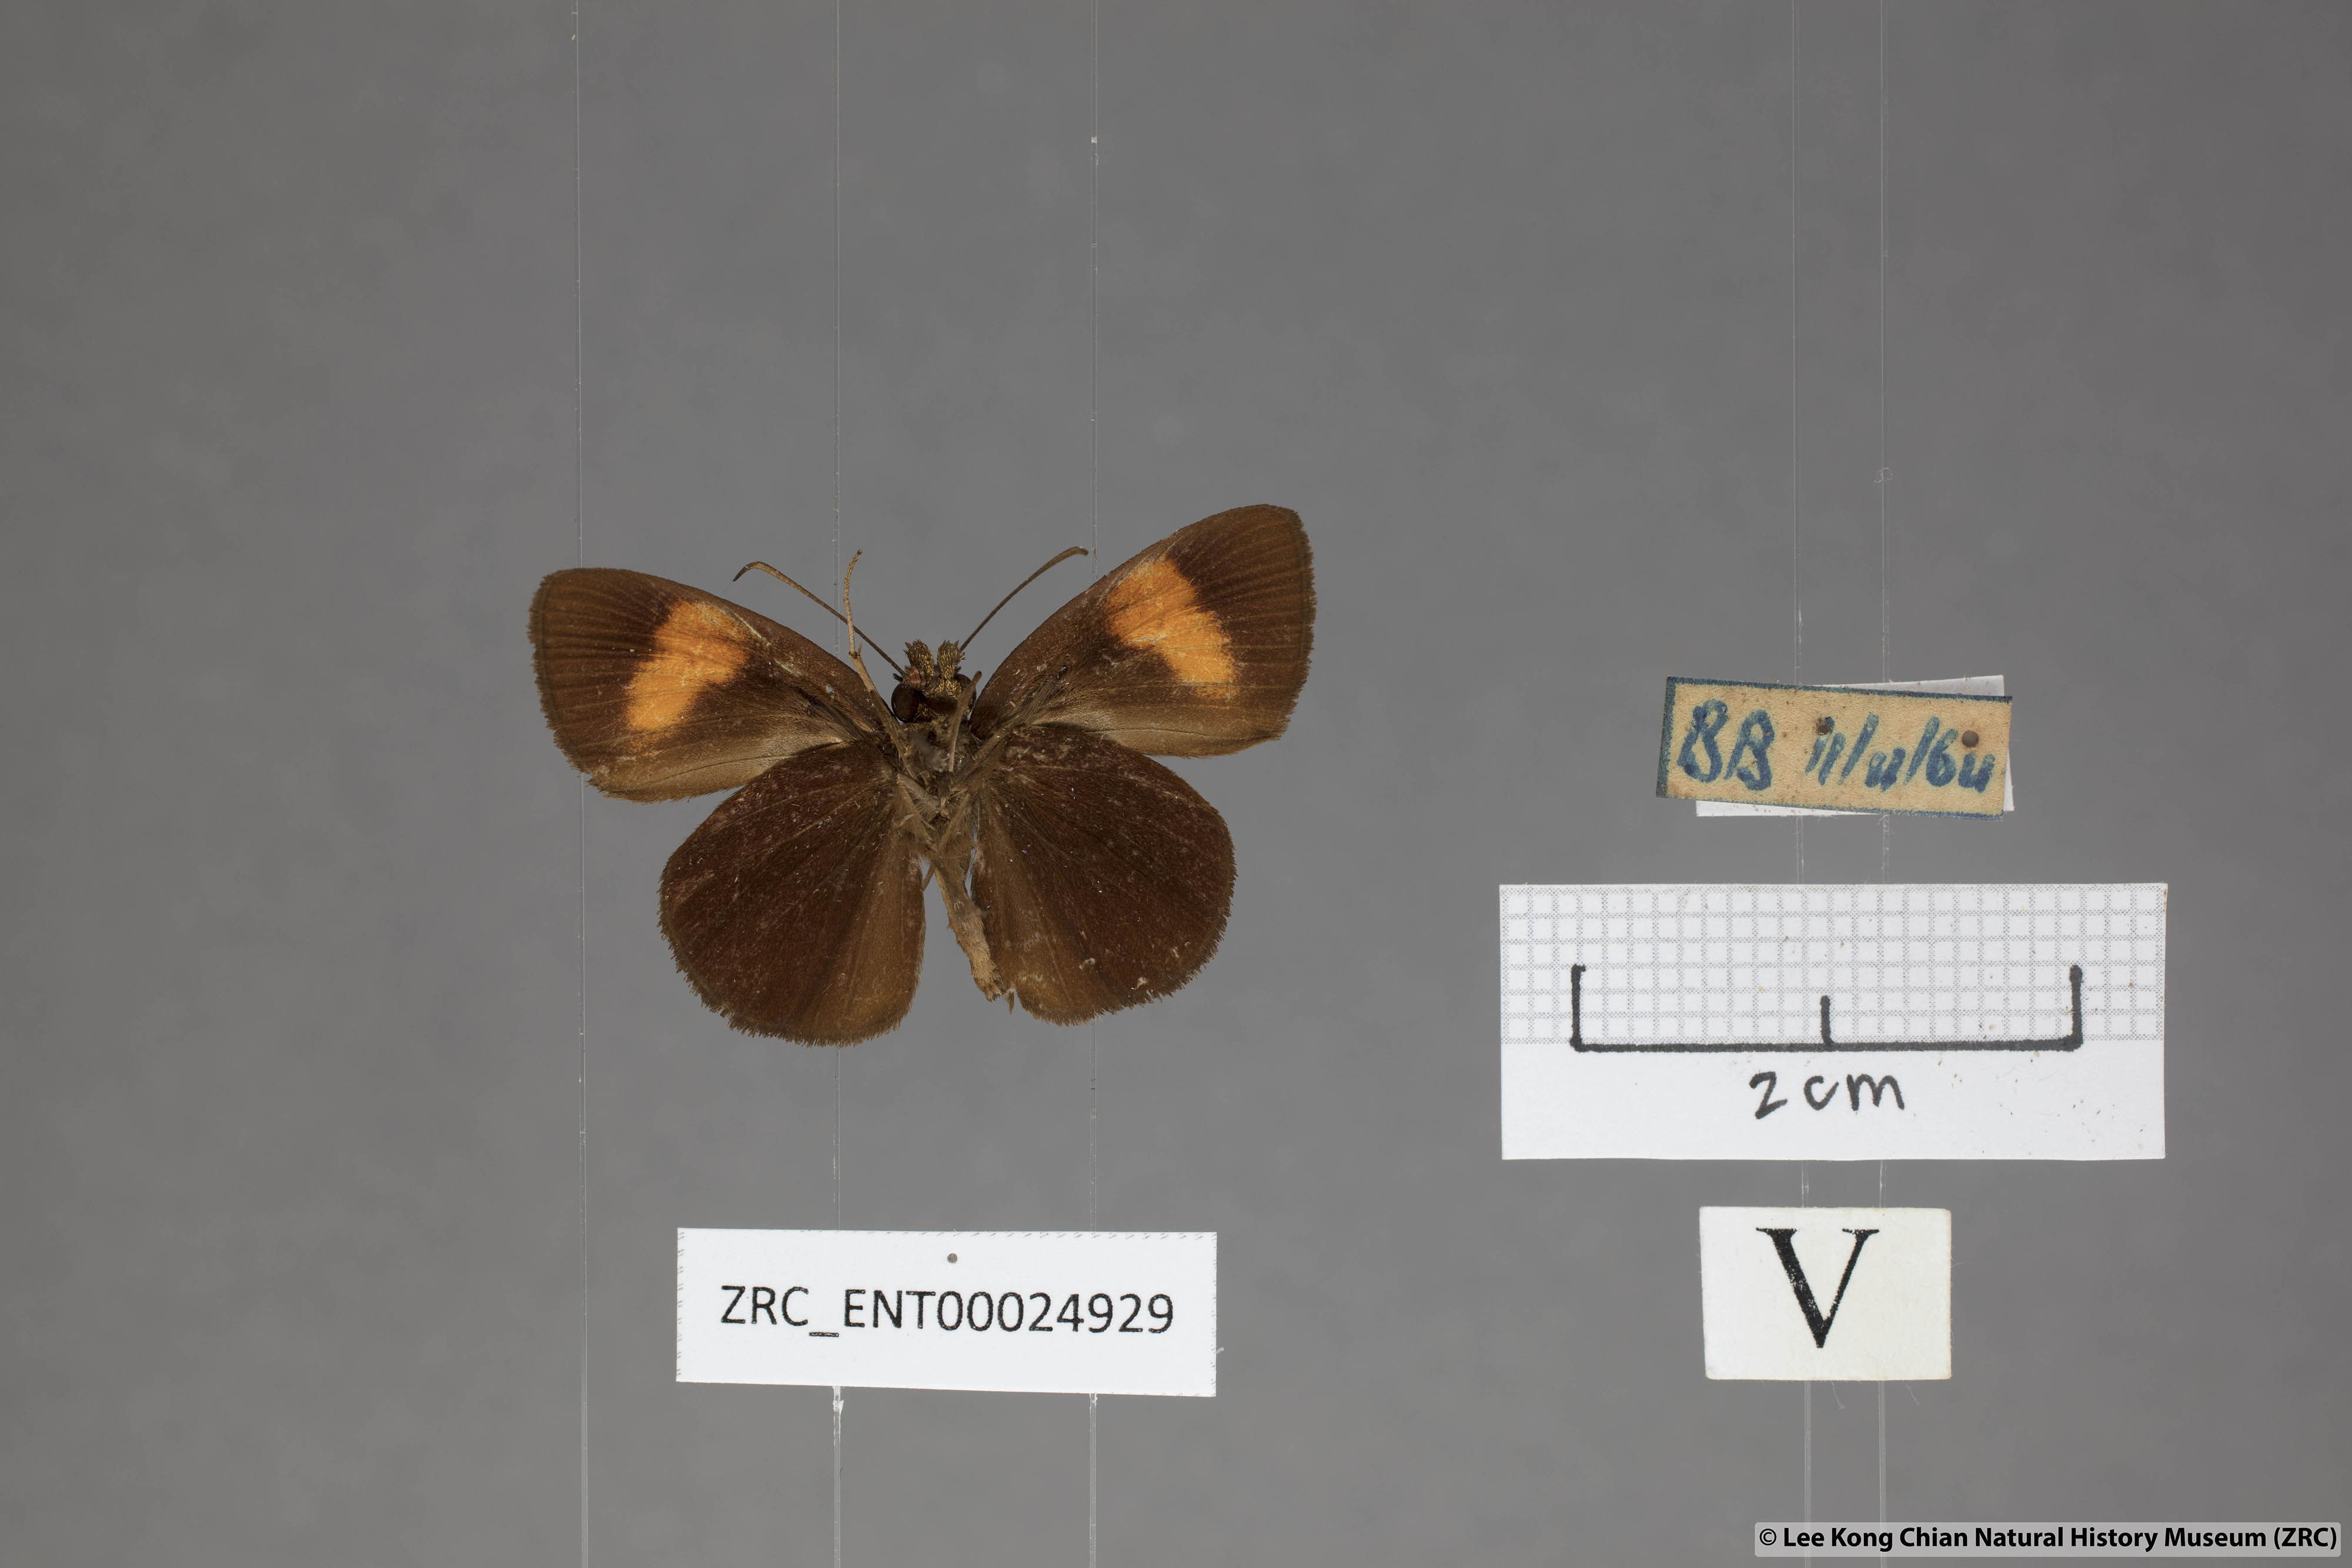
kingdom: Animalia
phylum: Arthropoda
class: Insecta
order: Lepidoptera
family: Hesperiidae
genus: Koruthaialos
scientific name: Koruthaialos rubecula
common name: Narrow-banded velvet bob
